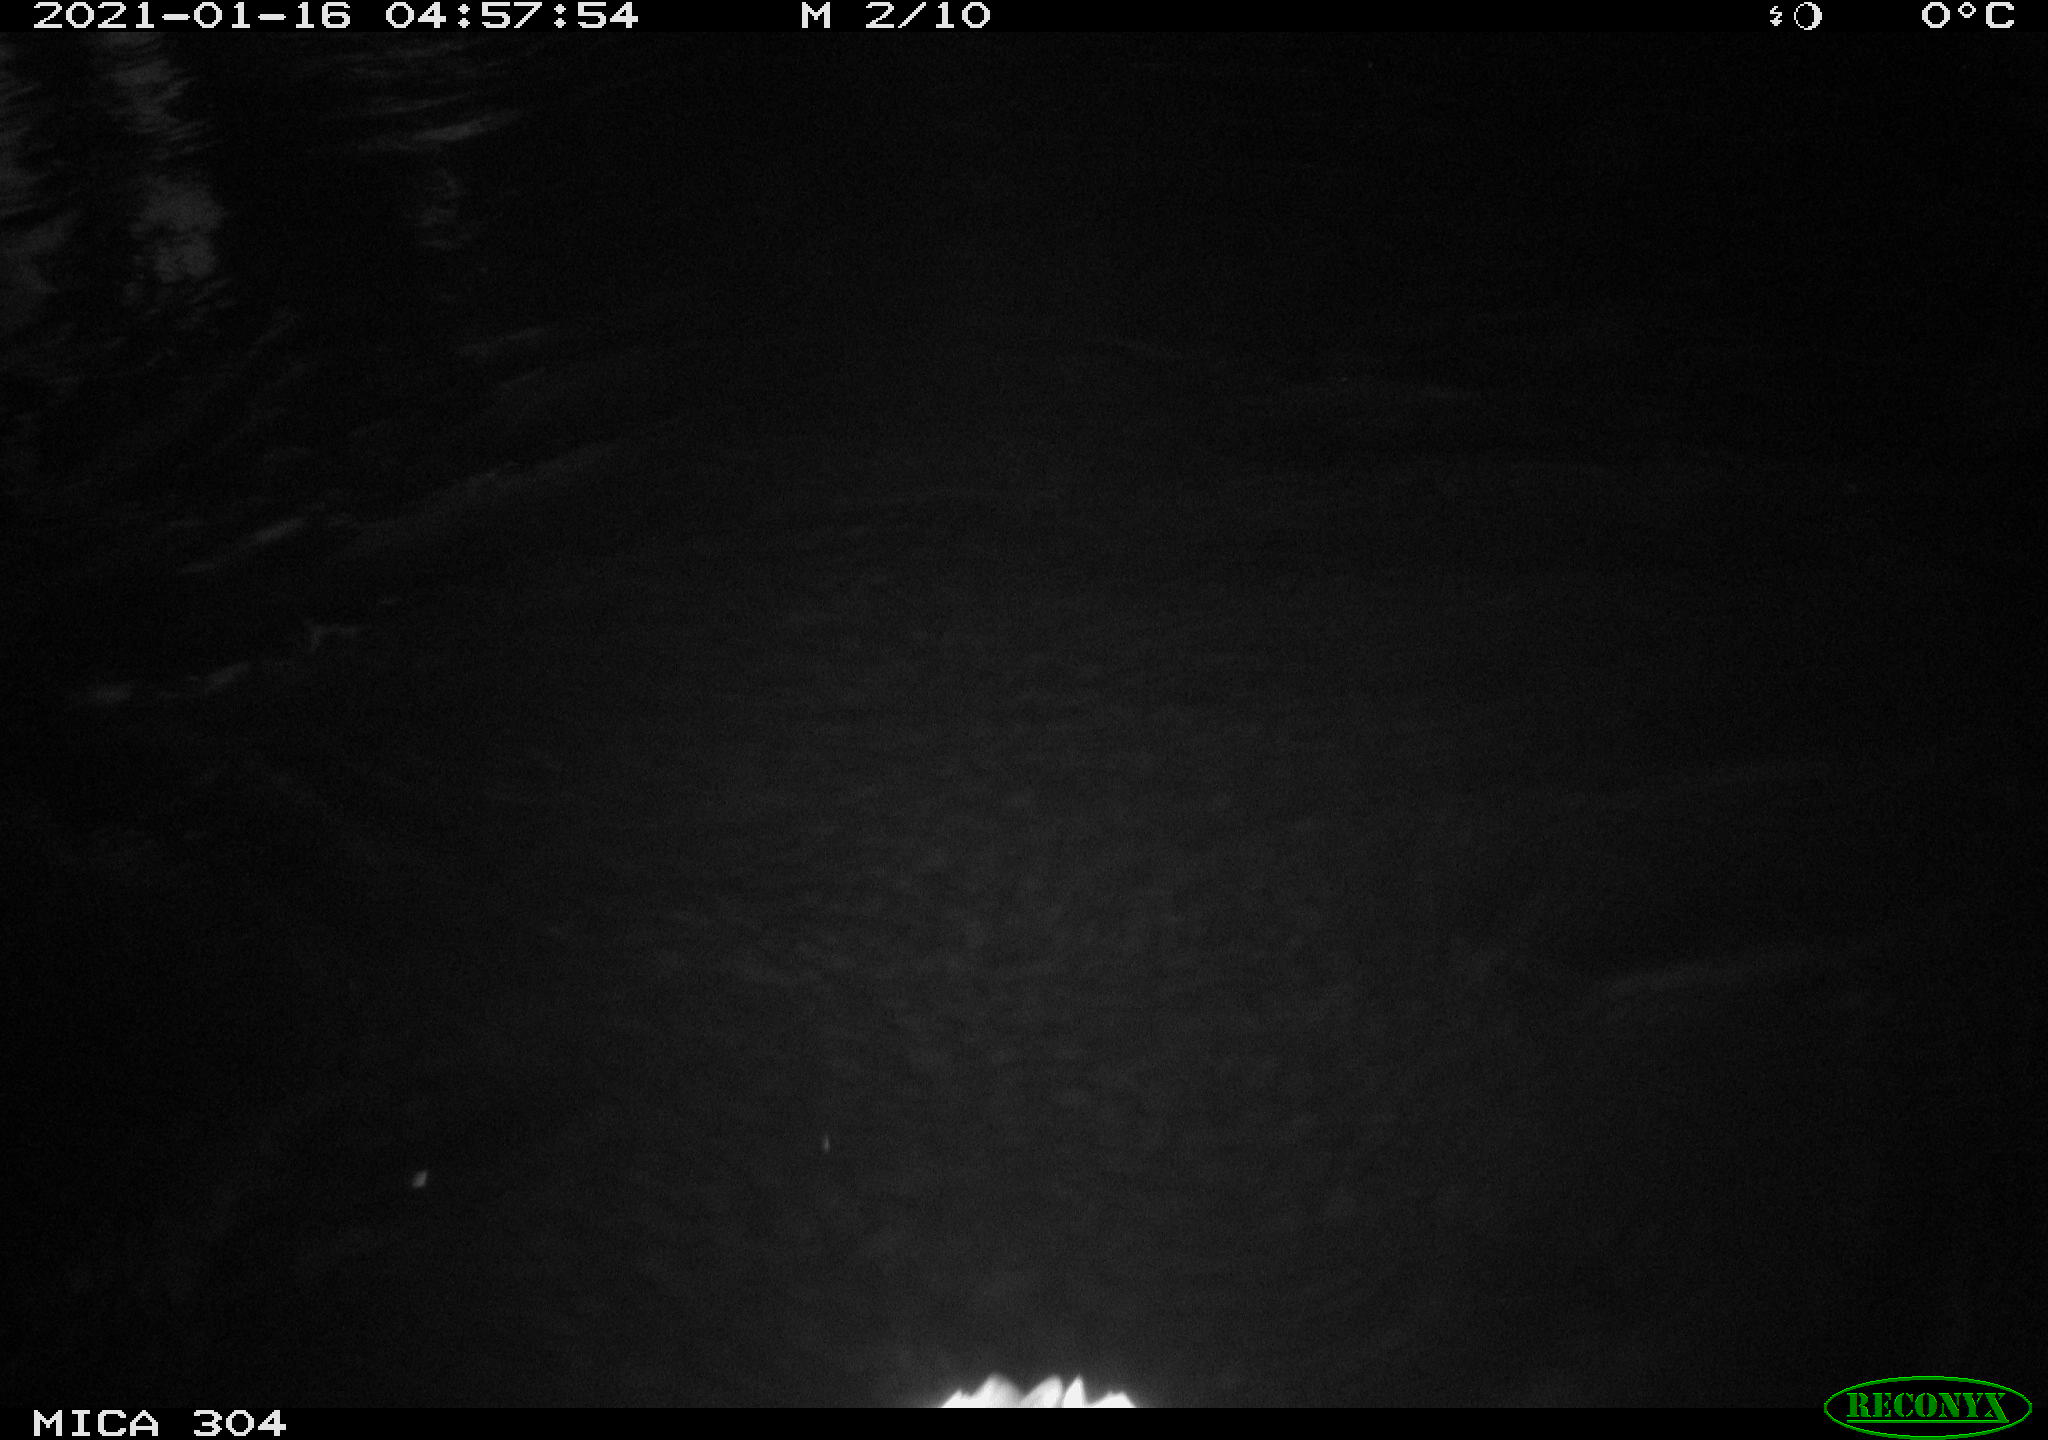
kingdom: Animalia
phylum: Chordata
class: Aves
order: Anseriformes
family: Anatidae
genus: Anas
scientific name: Anas platyrhynchos
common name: Mallard
